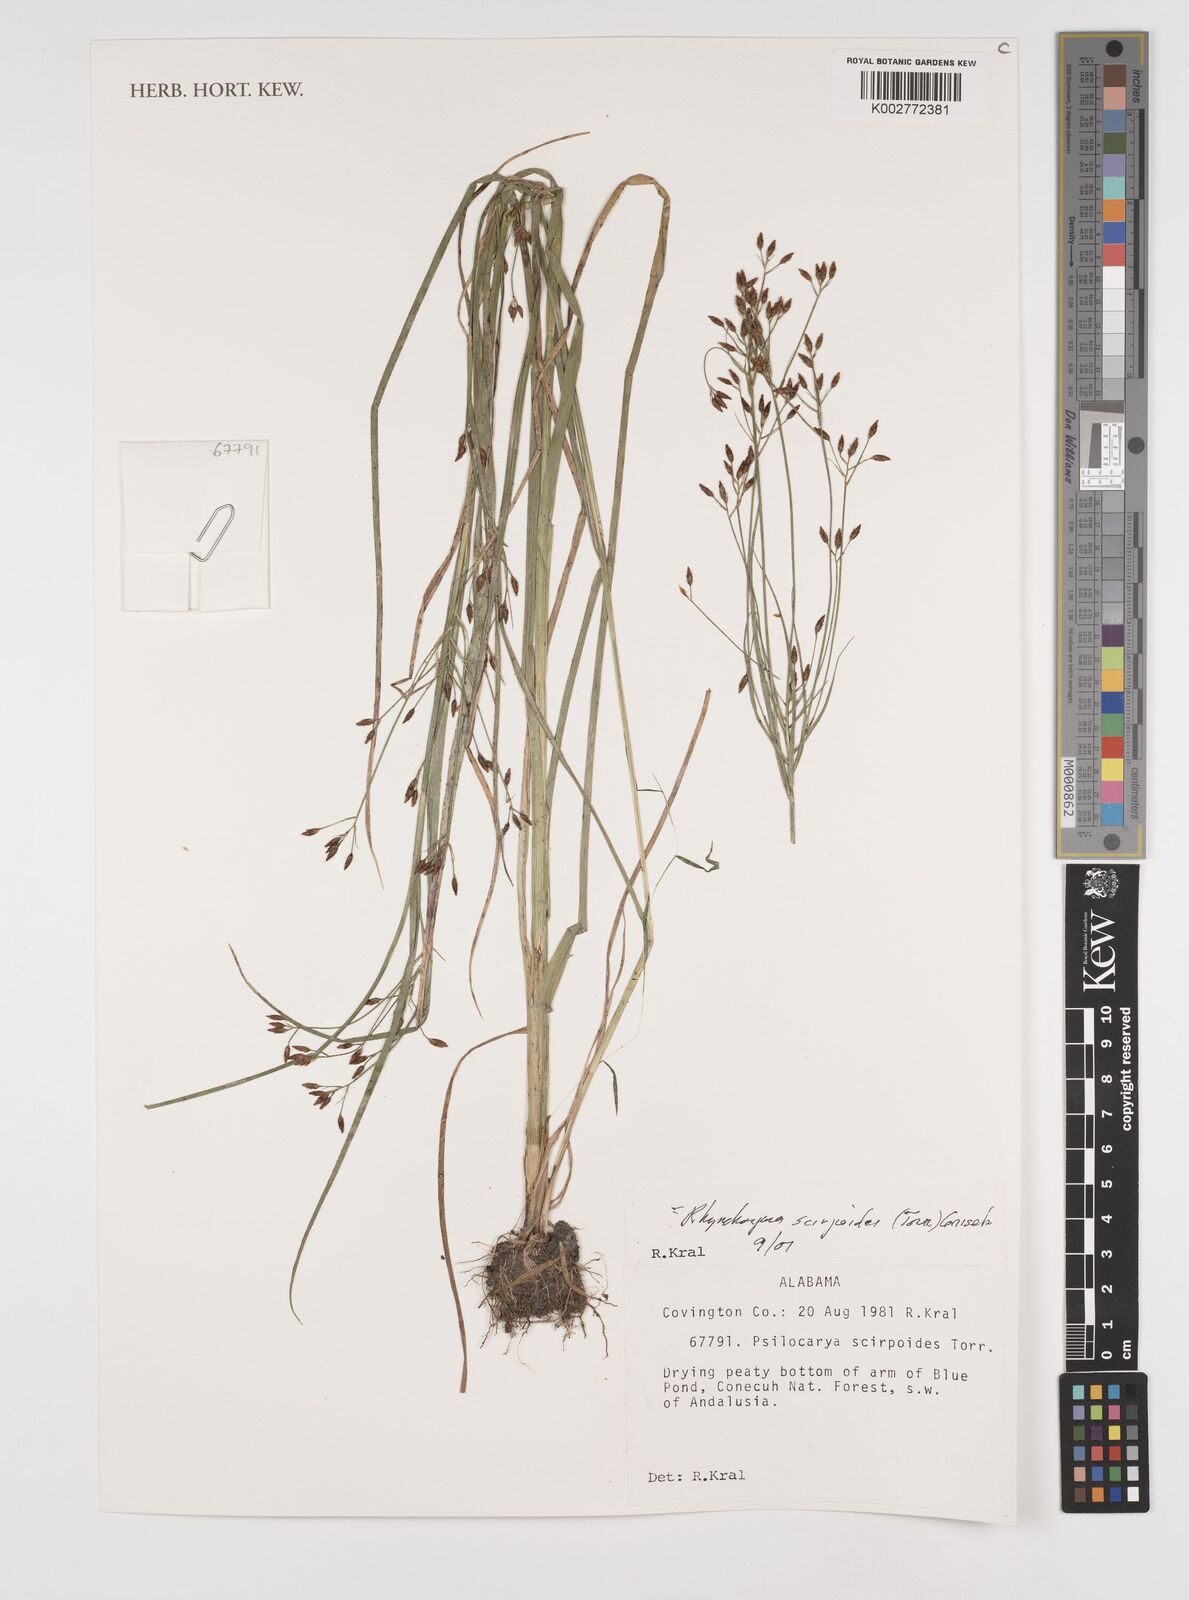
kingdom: Plantae
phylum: Tracheophyta
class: Liliopsida
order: Poales
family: Cyperaceae
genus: Rhynchospora
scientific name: Rhynchospora scirpoides
